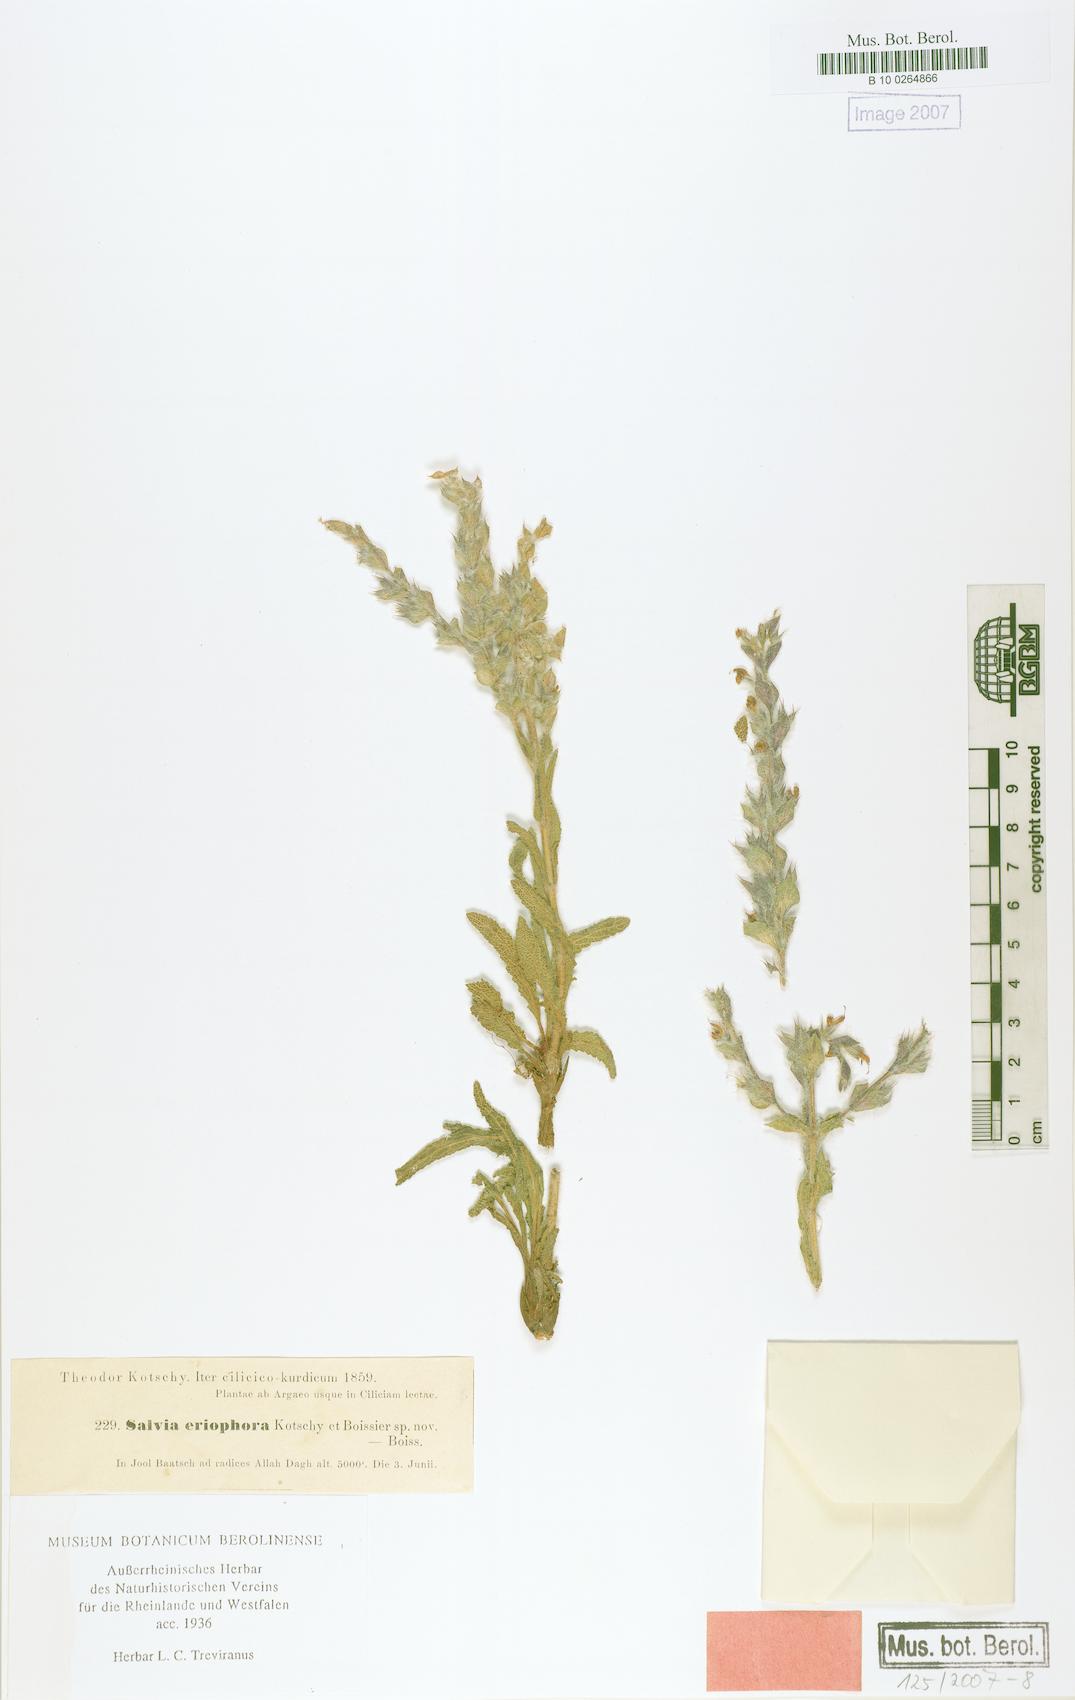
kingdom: Plantae
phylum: Tracheophyta
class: Magnoliopsida
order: Lamiales
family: Lamiaceae
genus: Salvia
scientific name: Salvia eriophora
